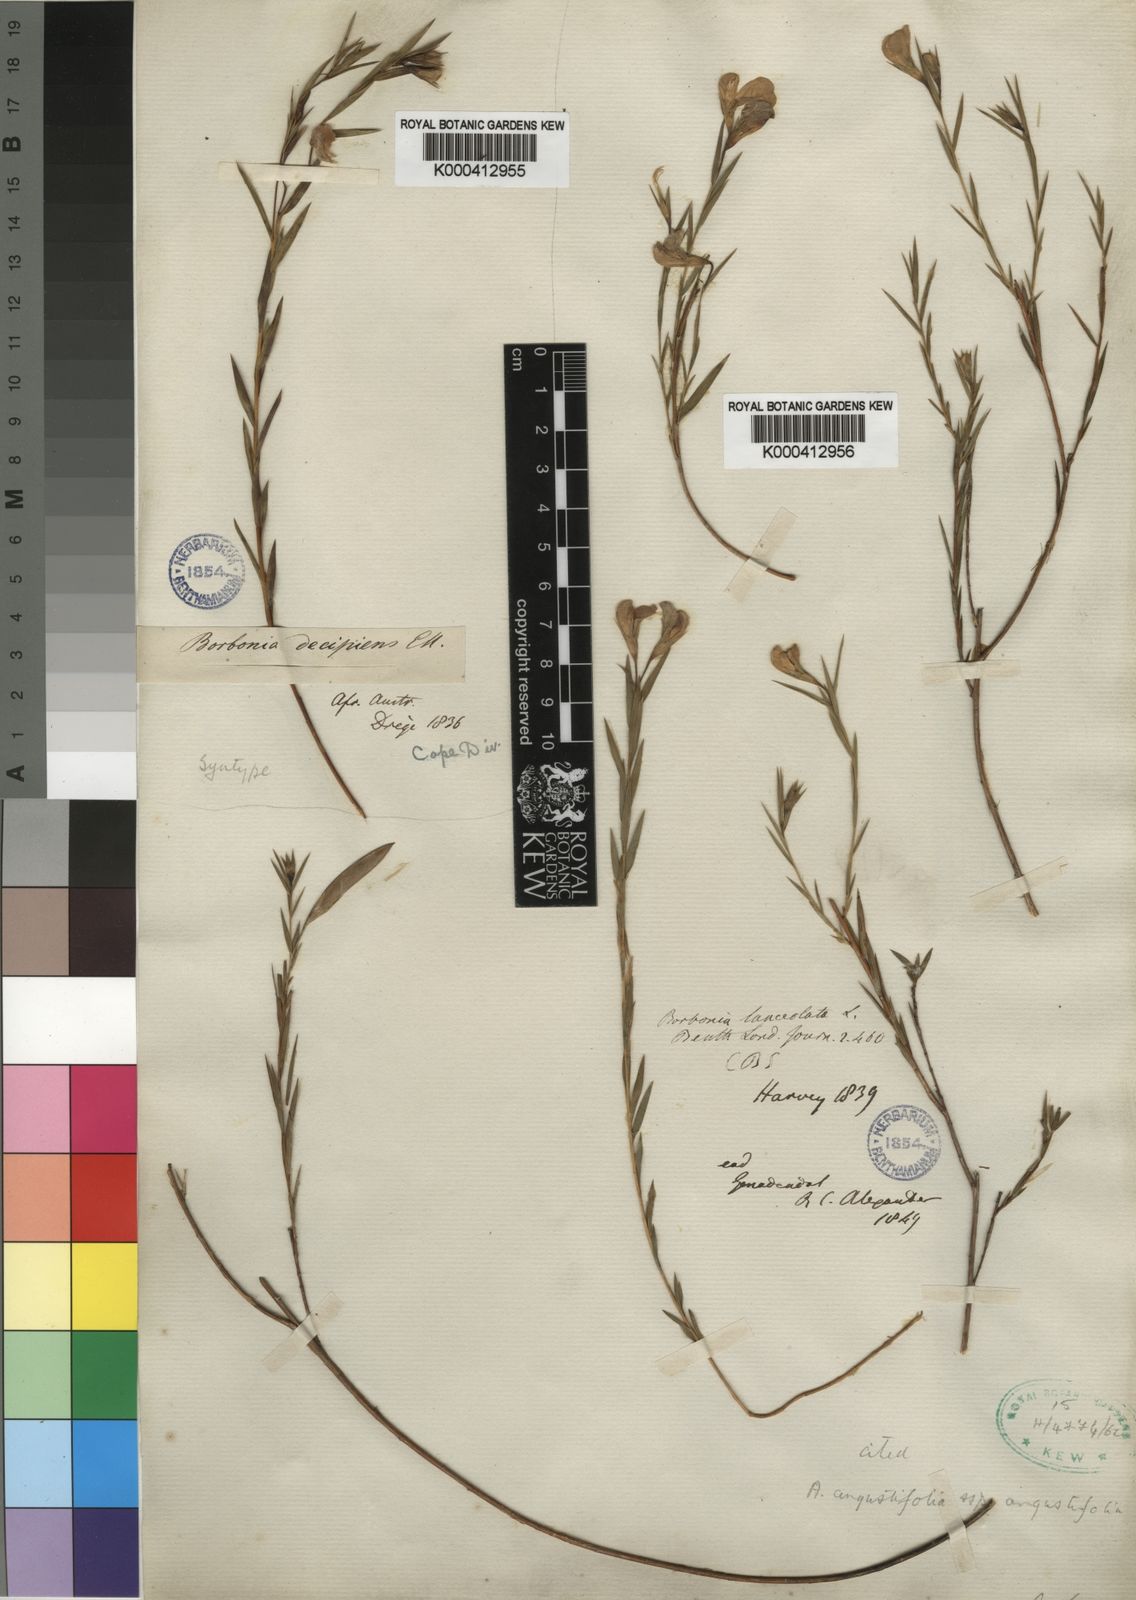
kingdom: Plantae
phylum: Tracheophyta
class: Magnoliopsida
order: Fabales
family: Fabaceae
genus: Aspalathus
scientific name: Aspalathus angustifolia
